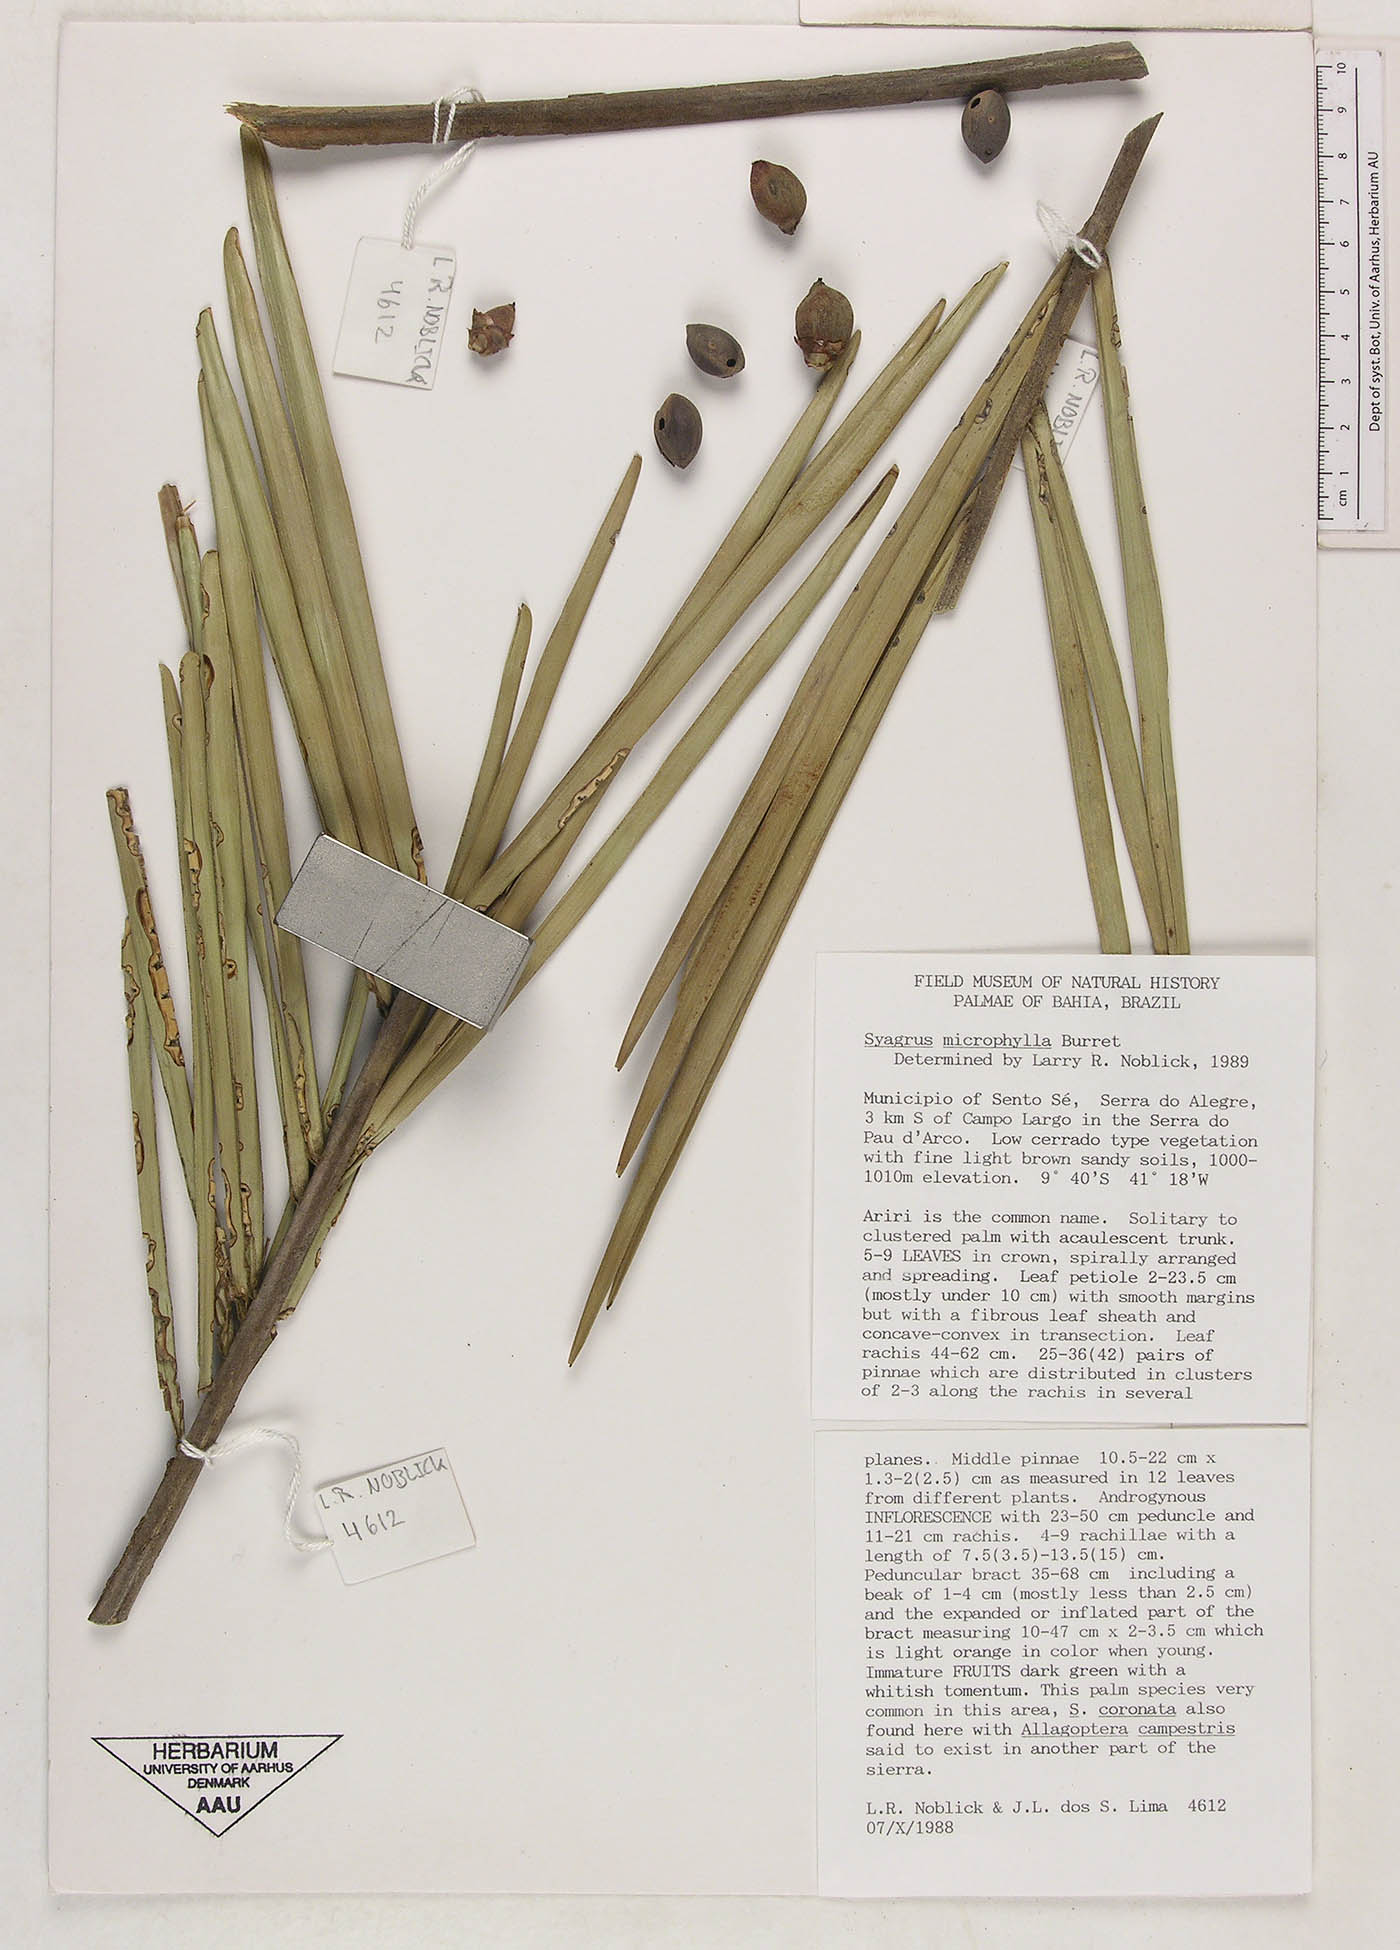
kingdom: Plantae
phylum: Tracheophyta
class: Liliopsida
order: Arecales
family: Arecaceae
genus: Syagrus
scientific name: Syagrus microphylla
